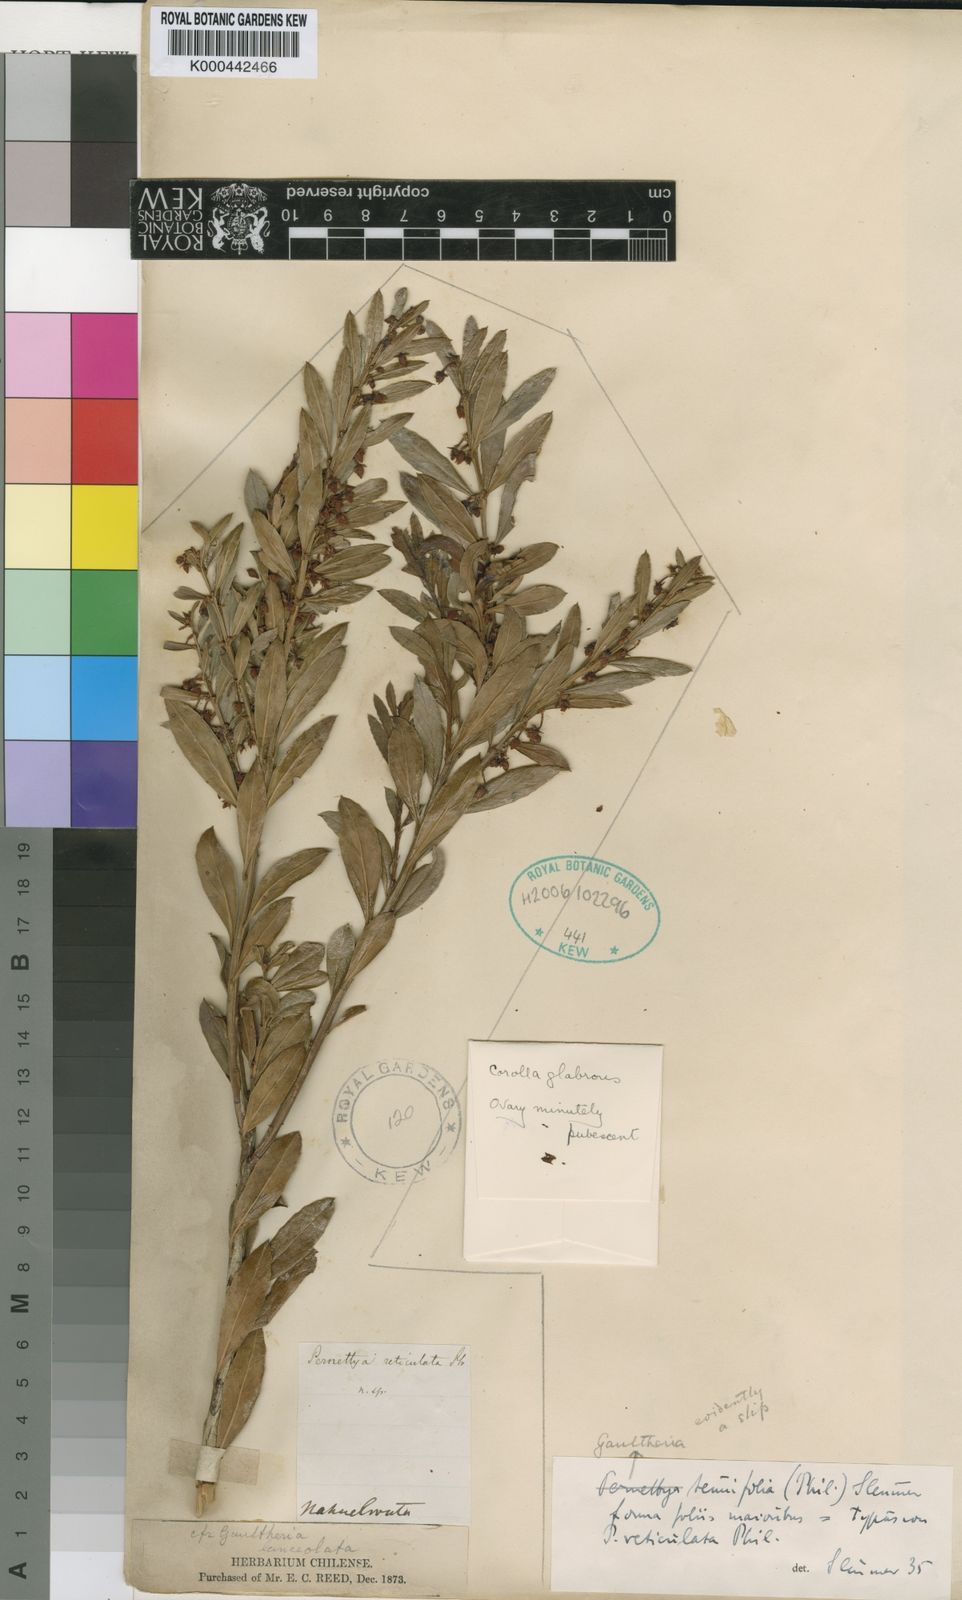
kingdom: Plantae
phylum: Tracheophyta
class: Magnoliopsida
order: Ericales
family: Ericaceae
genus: Gaultheria
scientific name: Gaultheria tenuifolia
